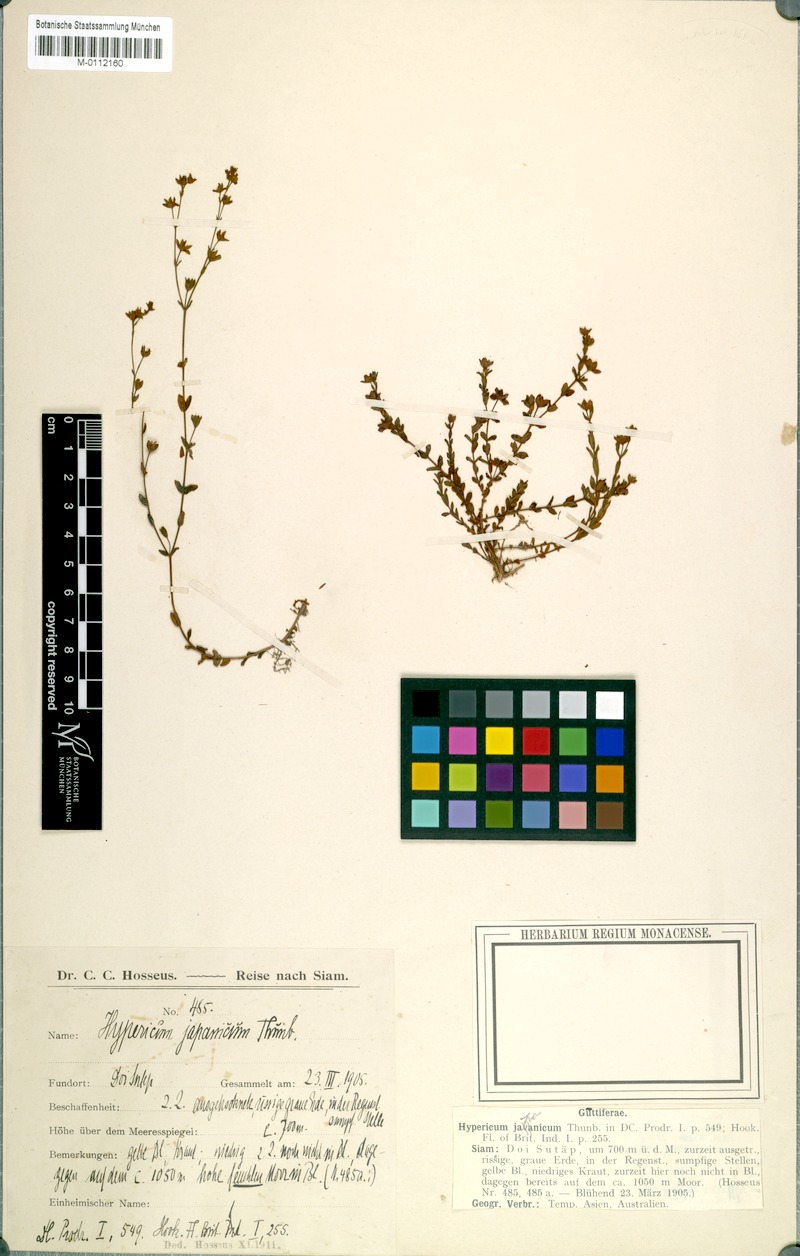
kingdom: Plantae
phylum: Tracheophyta
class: Magnoliopsida
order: Malpighiales
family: Hypericaceae
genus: Hypericum
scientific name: Hypericum japonicum
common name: Matted st. john's-wort
